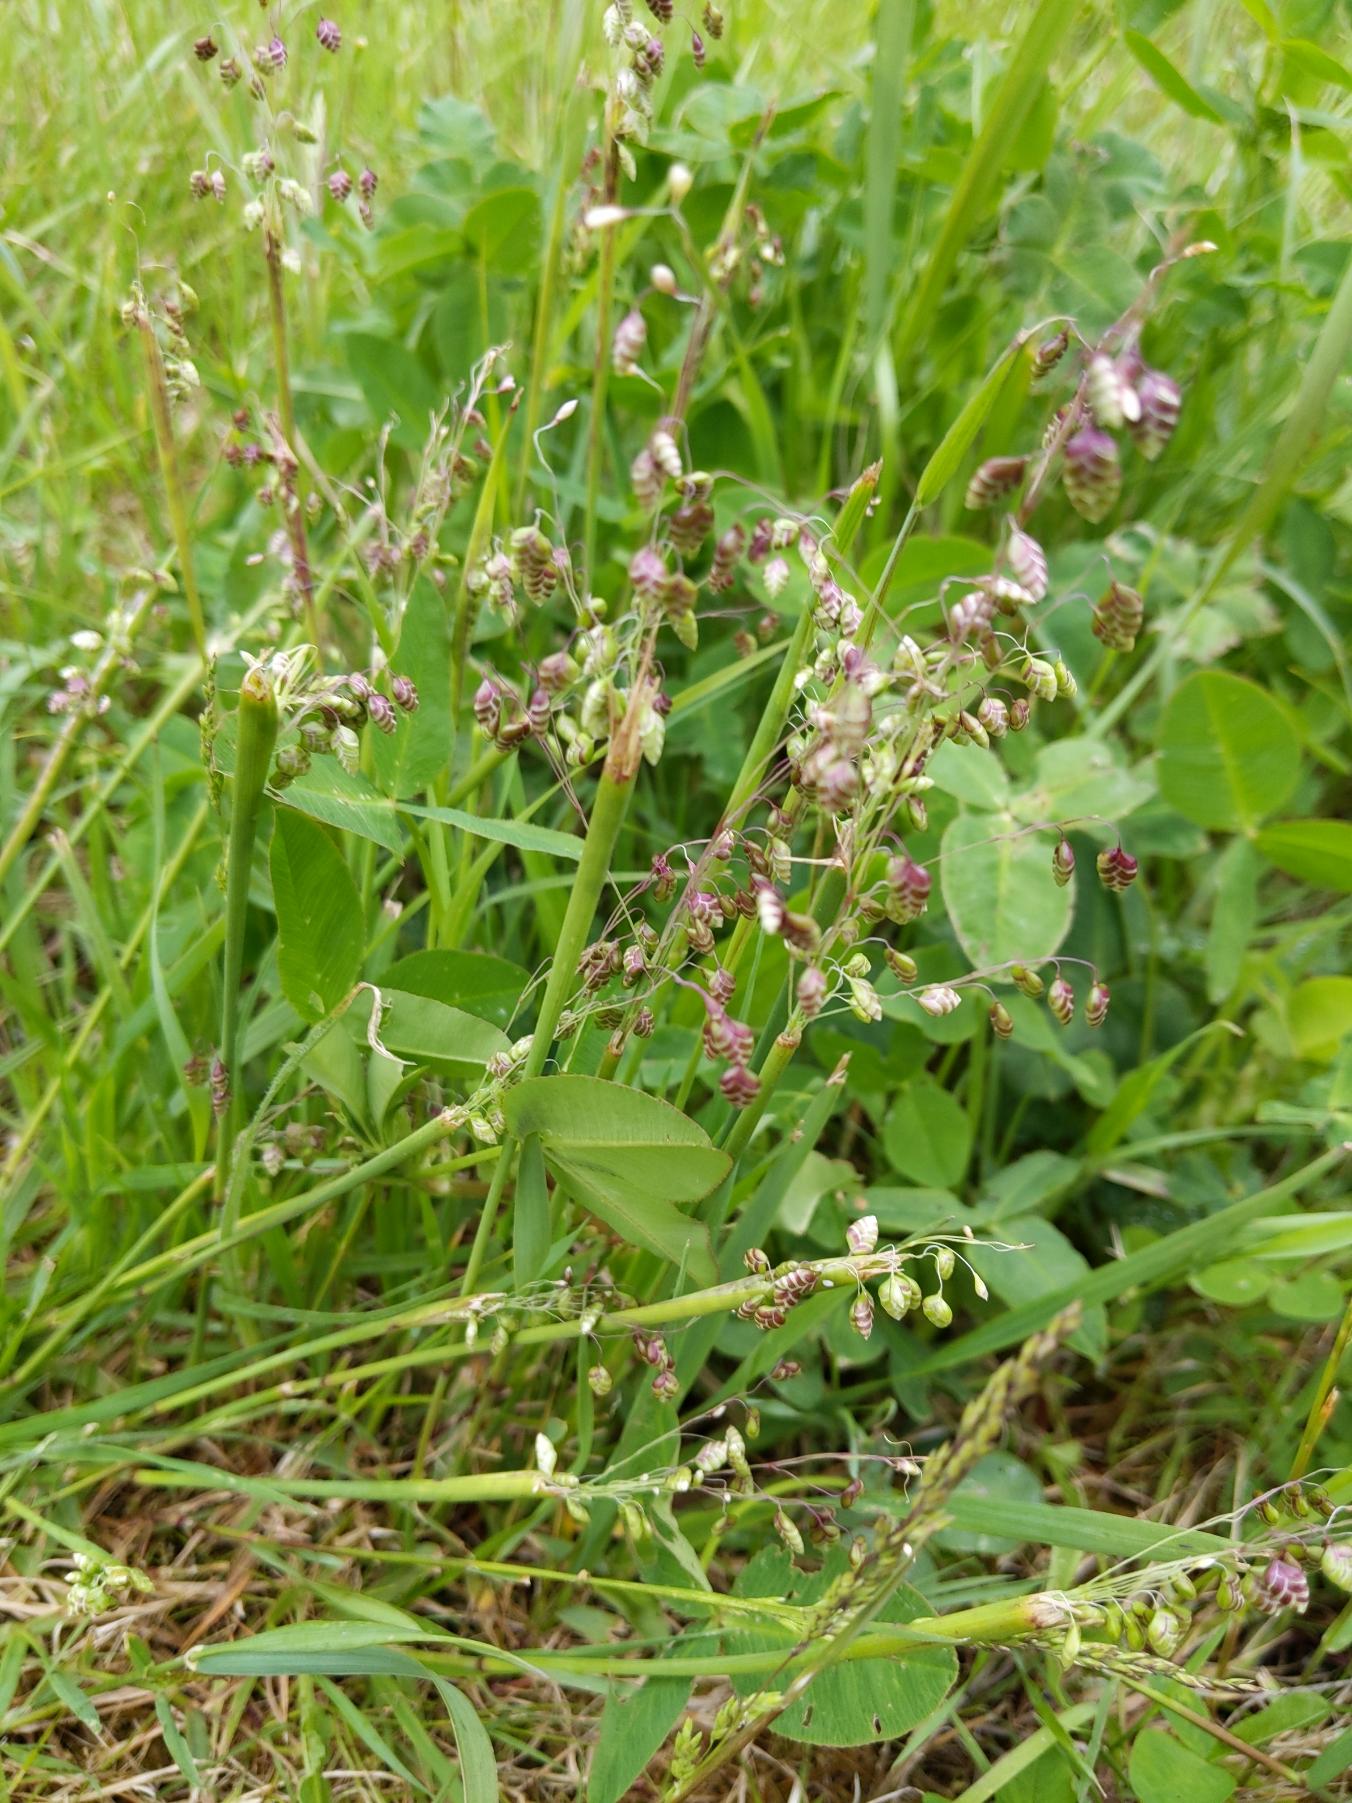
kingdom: Plantae
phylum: Tracheophyta
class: Liliopsida
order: Poales
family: Poaceae
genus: Briza
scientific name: Briza media
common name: Hjertegræs
